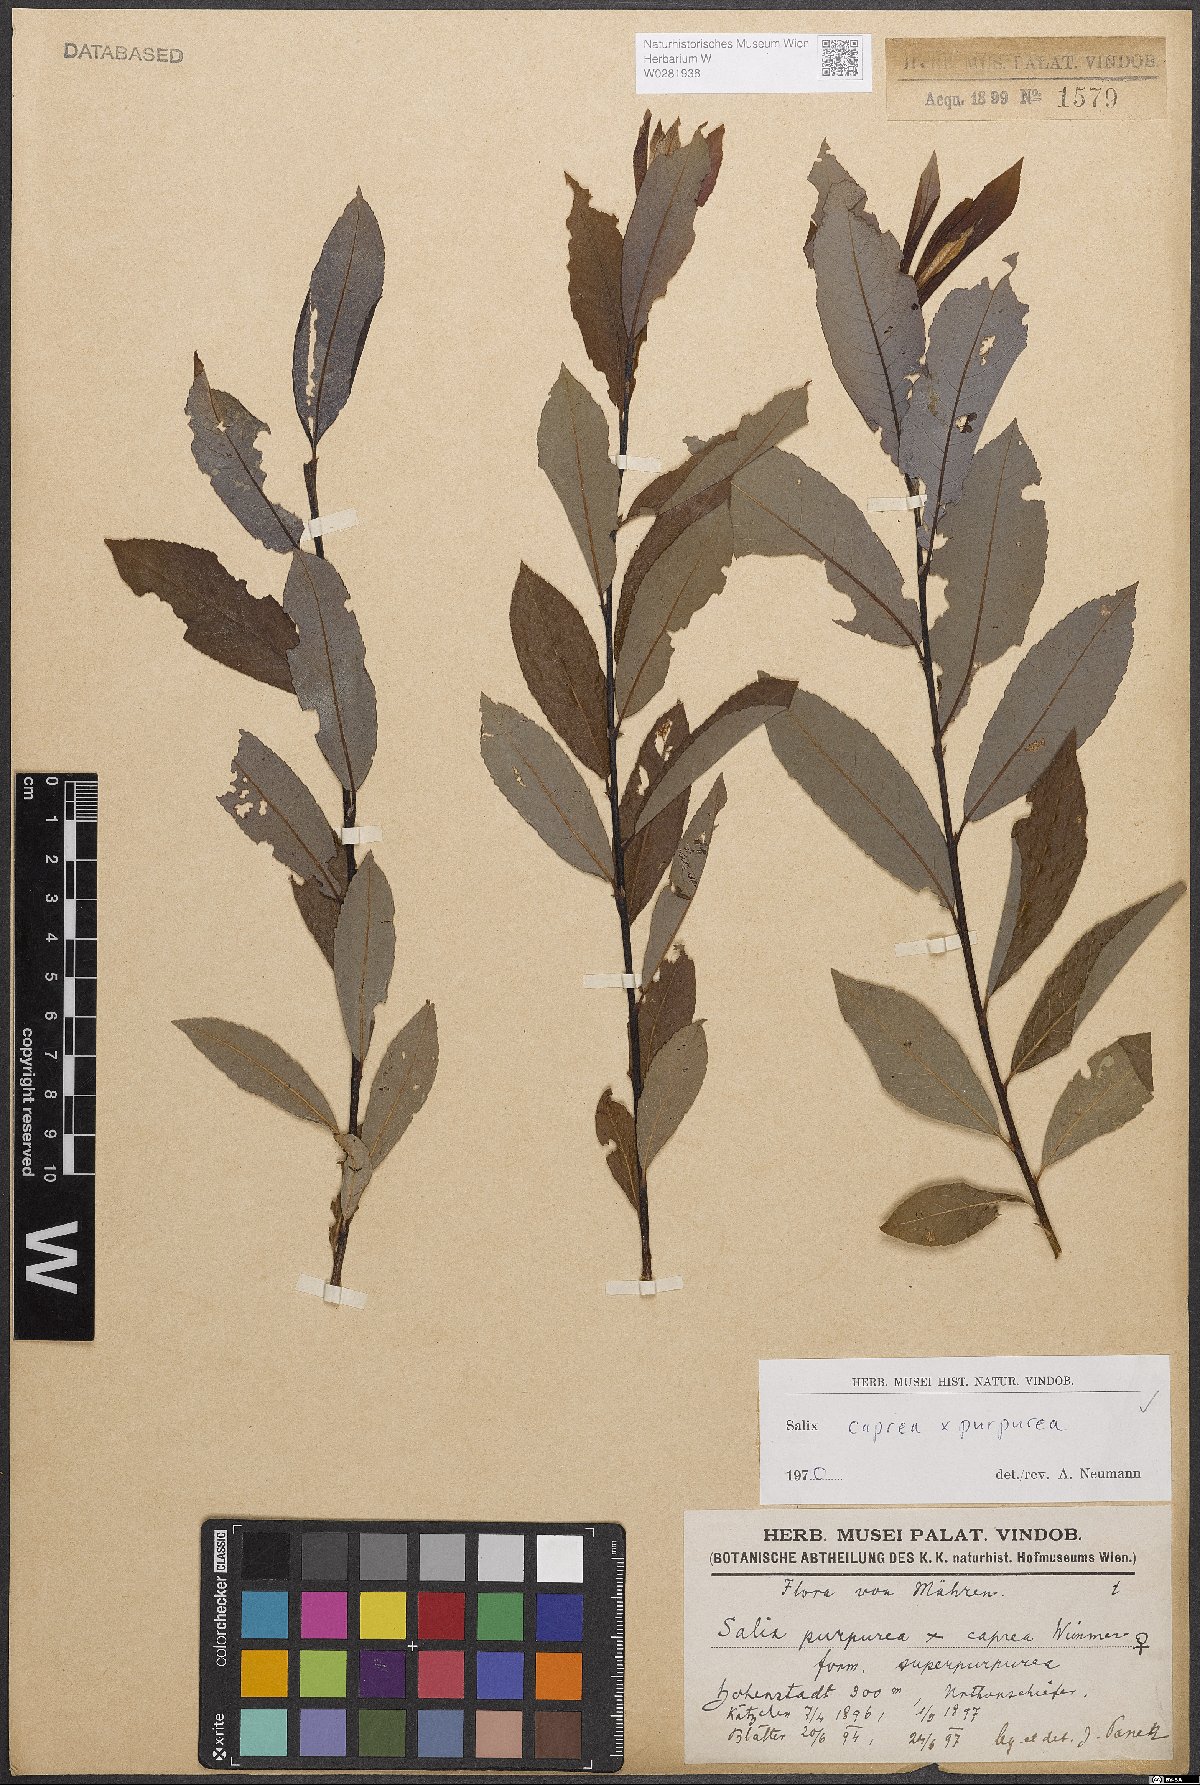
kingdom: Plantae
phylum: Tracheophyta
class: Magnoliopsida
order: Malpighiales
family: Salicaceae
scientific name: Salicaceae
